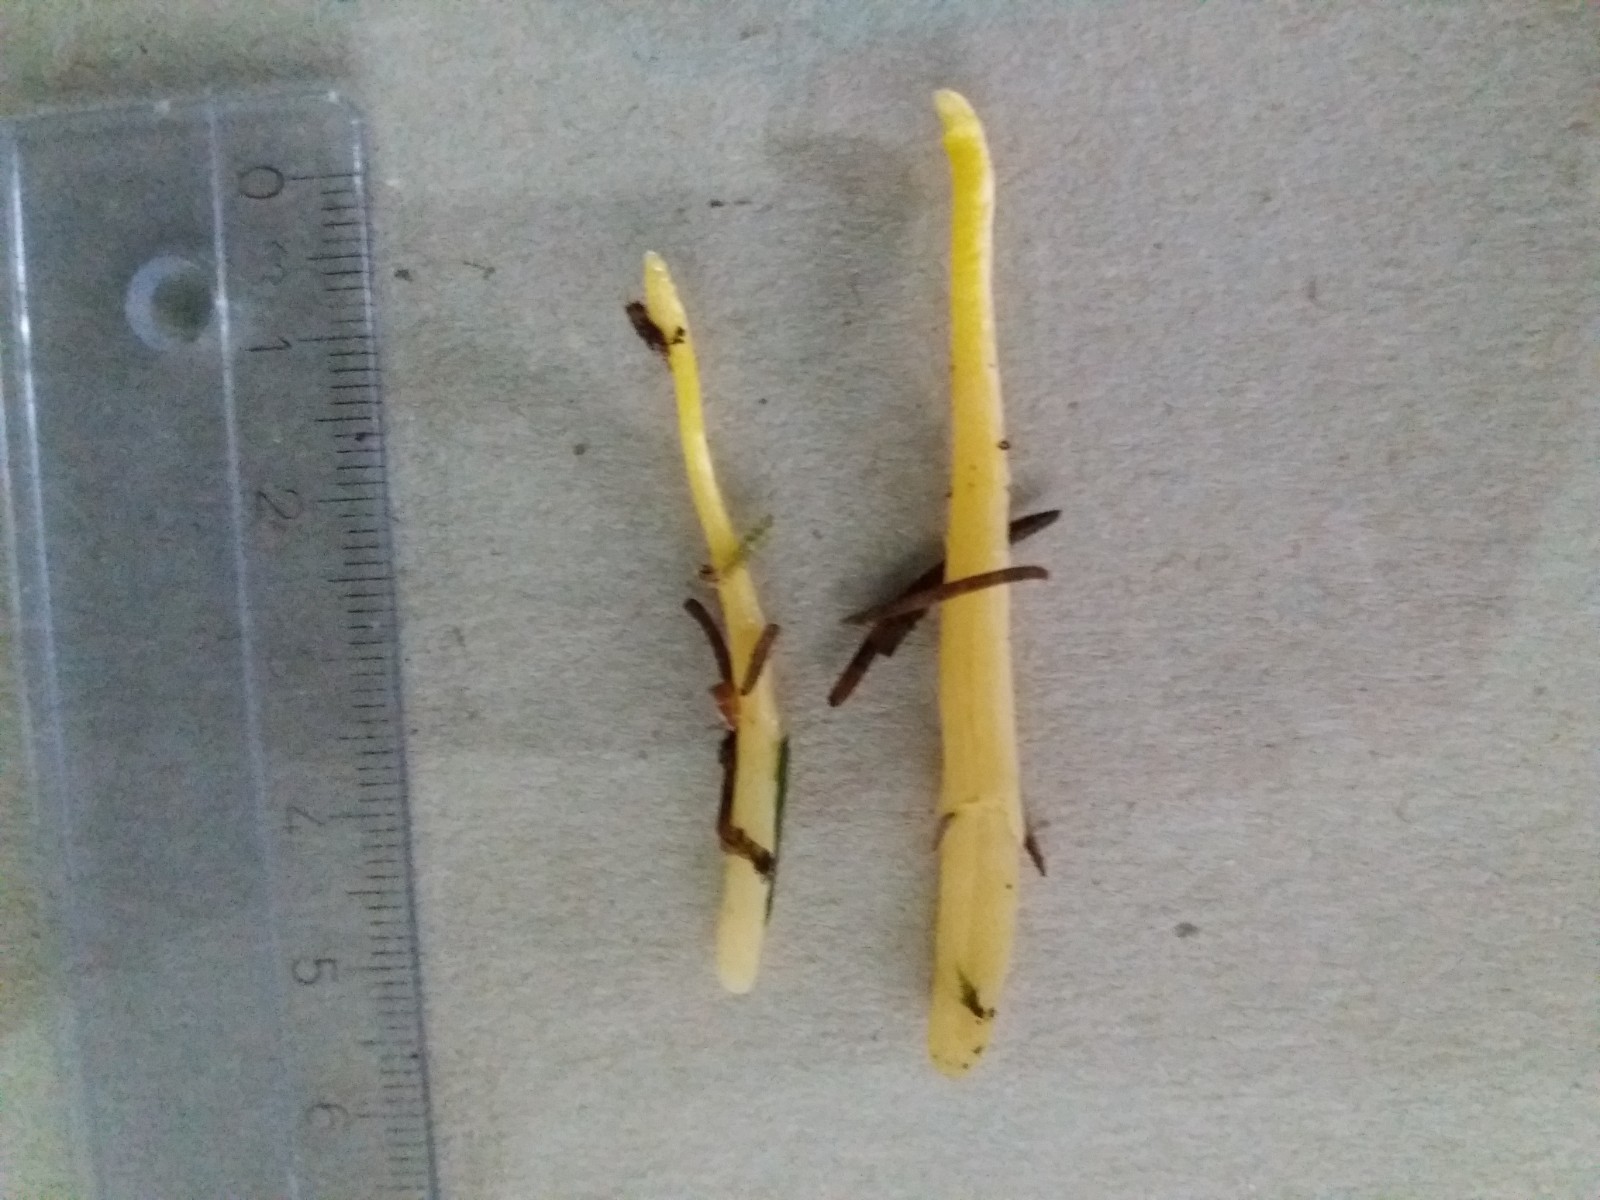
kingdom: Fungi
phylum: Basidiomycota
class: Agaricomycetes
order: Agaricales
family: Clavariaceae
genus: Clavaria
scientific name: Clavaria argillacea
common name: lerfarvet køllesvamp
